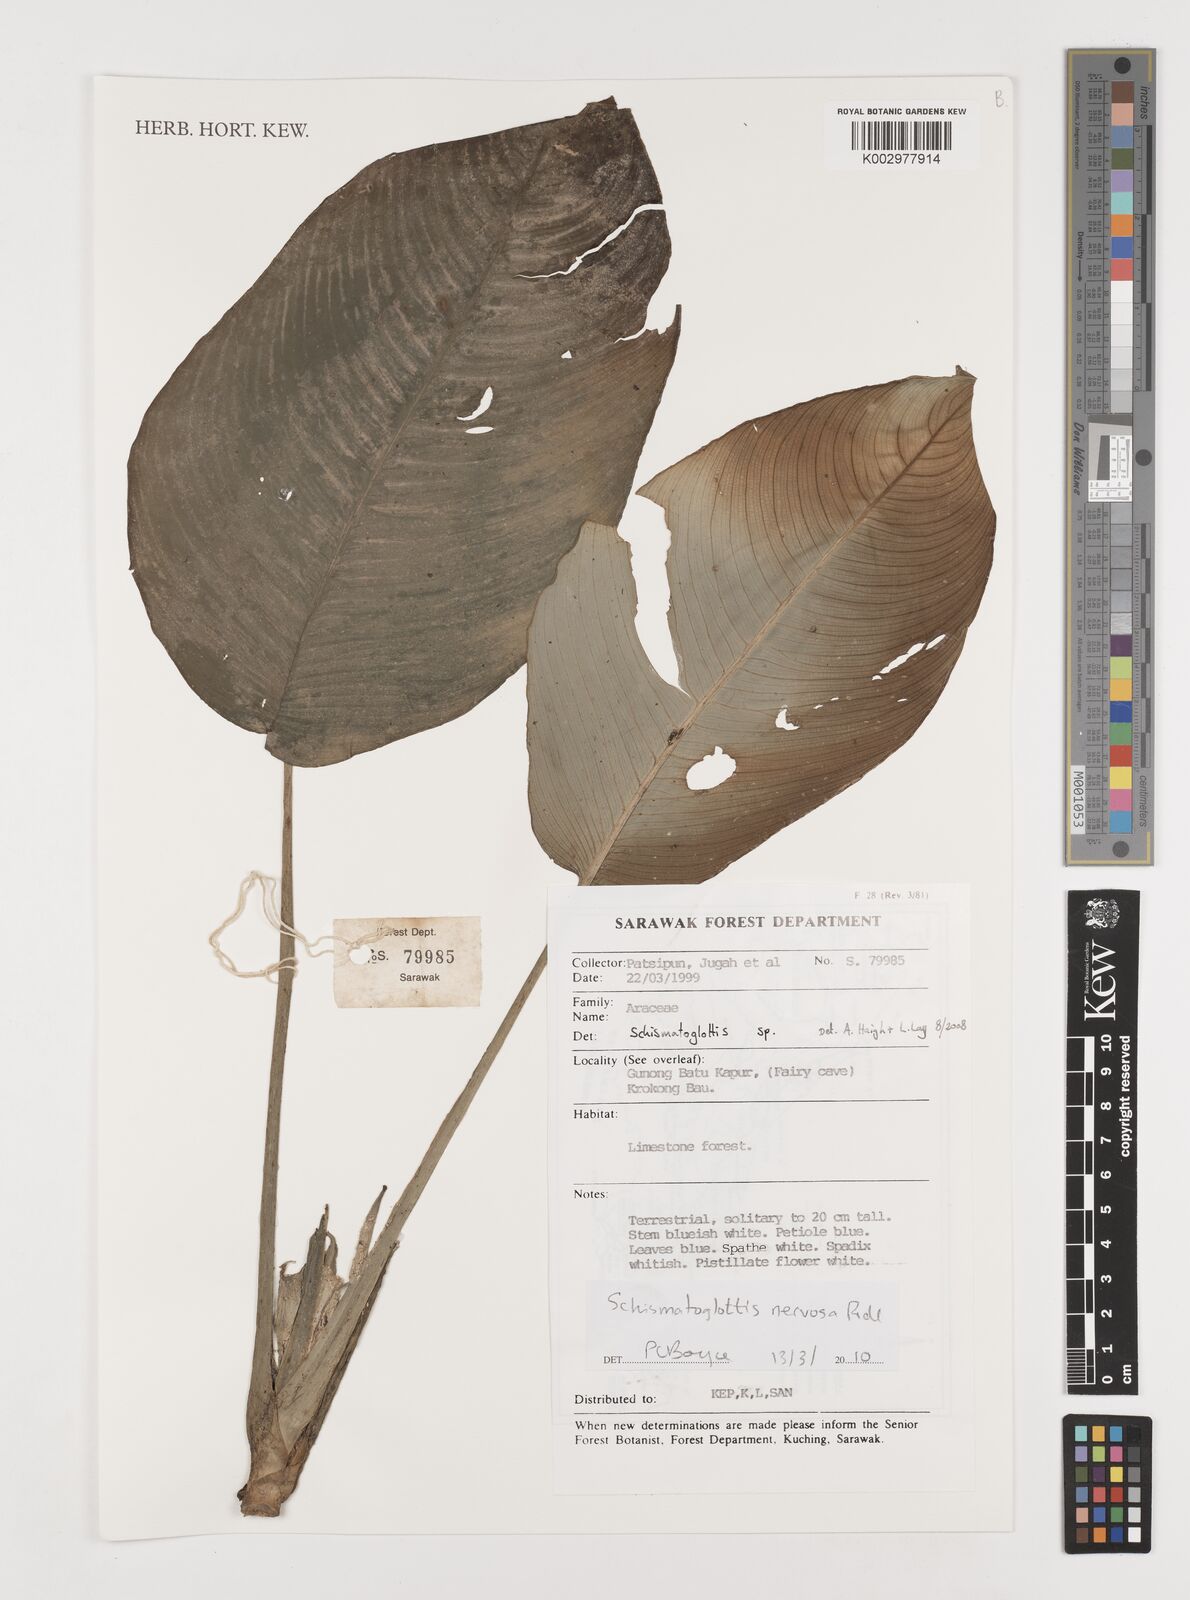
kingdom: Plantae
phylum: Tracheophyta
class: Liliopsida
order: Alismatales
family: Araceae
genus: Schismatoglottis
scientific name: Schismatoglottis nervosa
